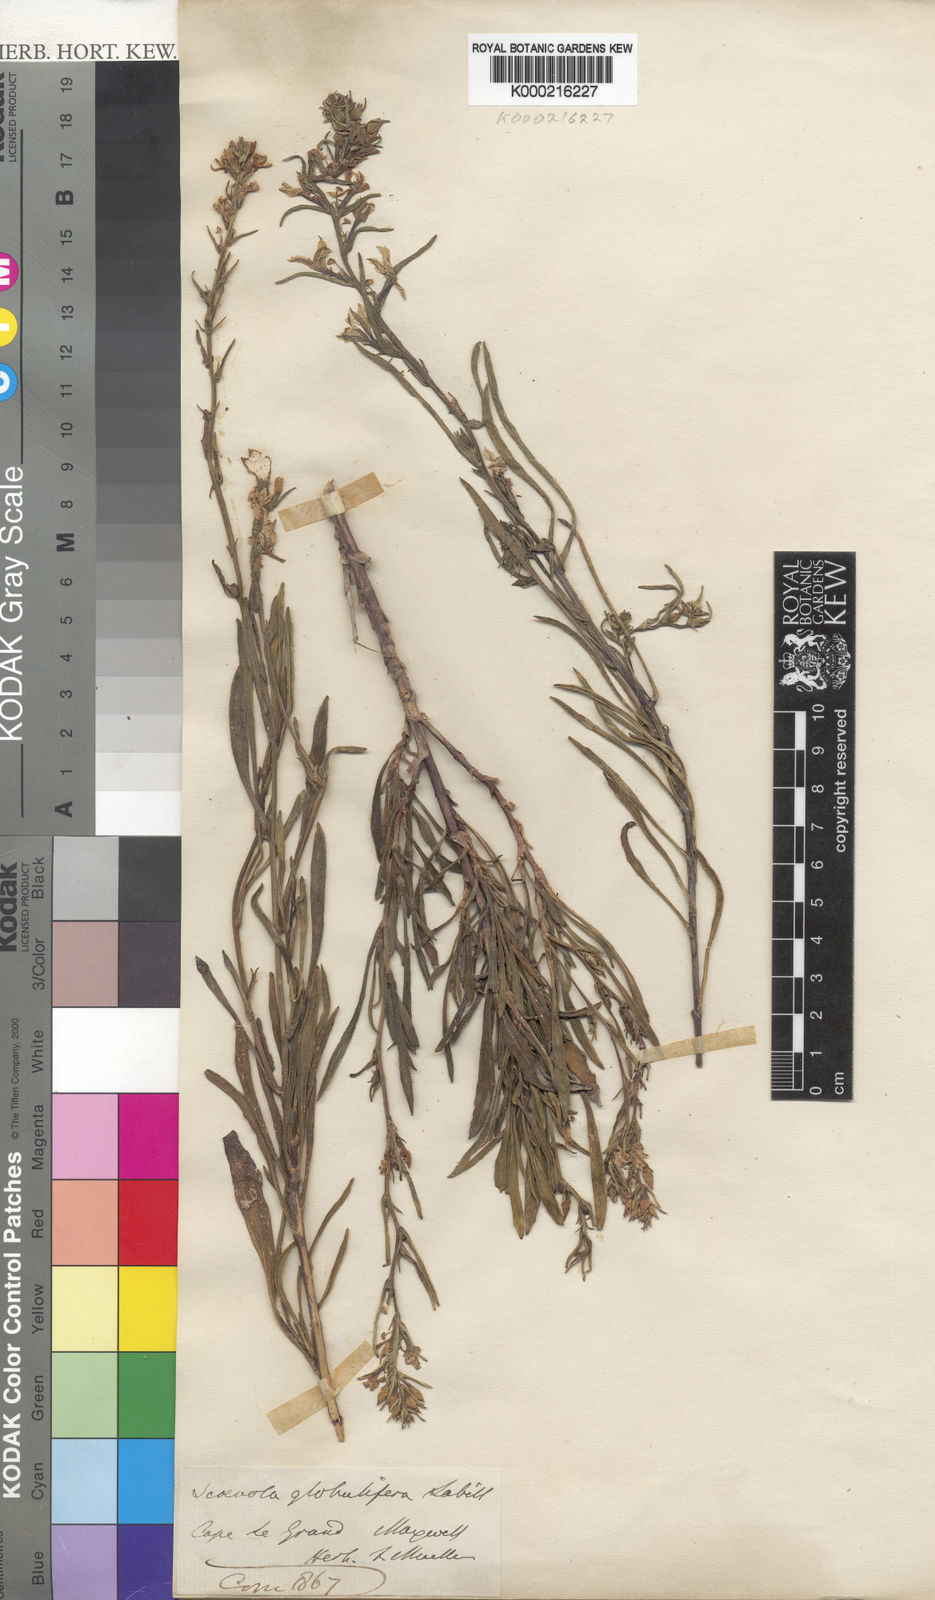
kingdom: Plantae
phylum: Tracheophyta
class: Magnoliopsida
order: Asterales
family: Goodeniaceae
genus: Scaevola
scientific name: Scaevola globulifera
